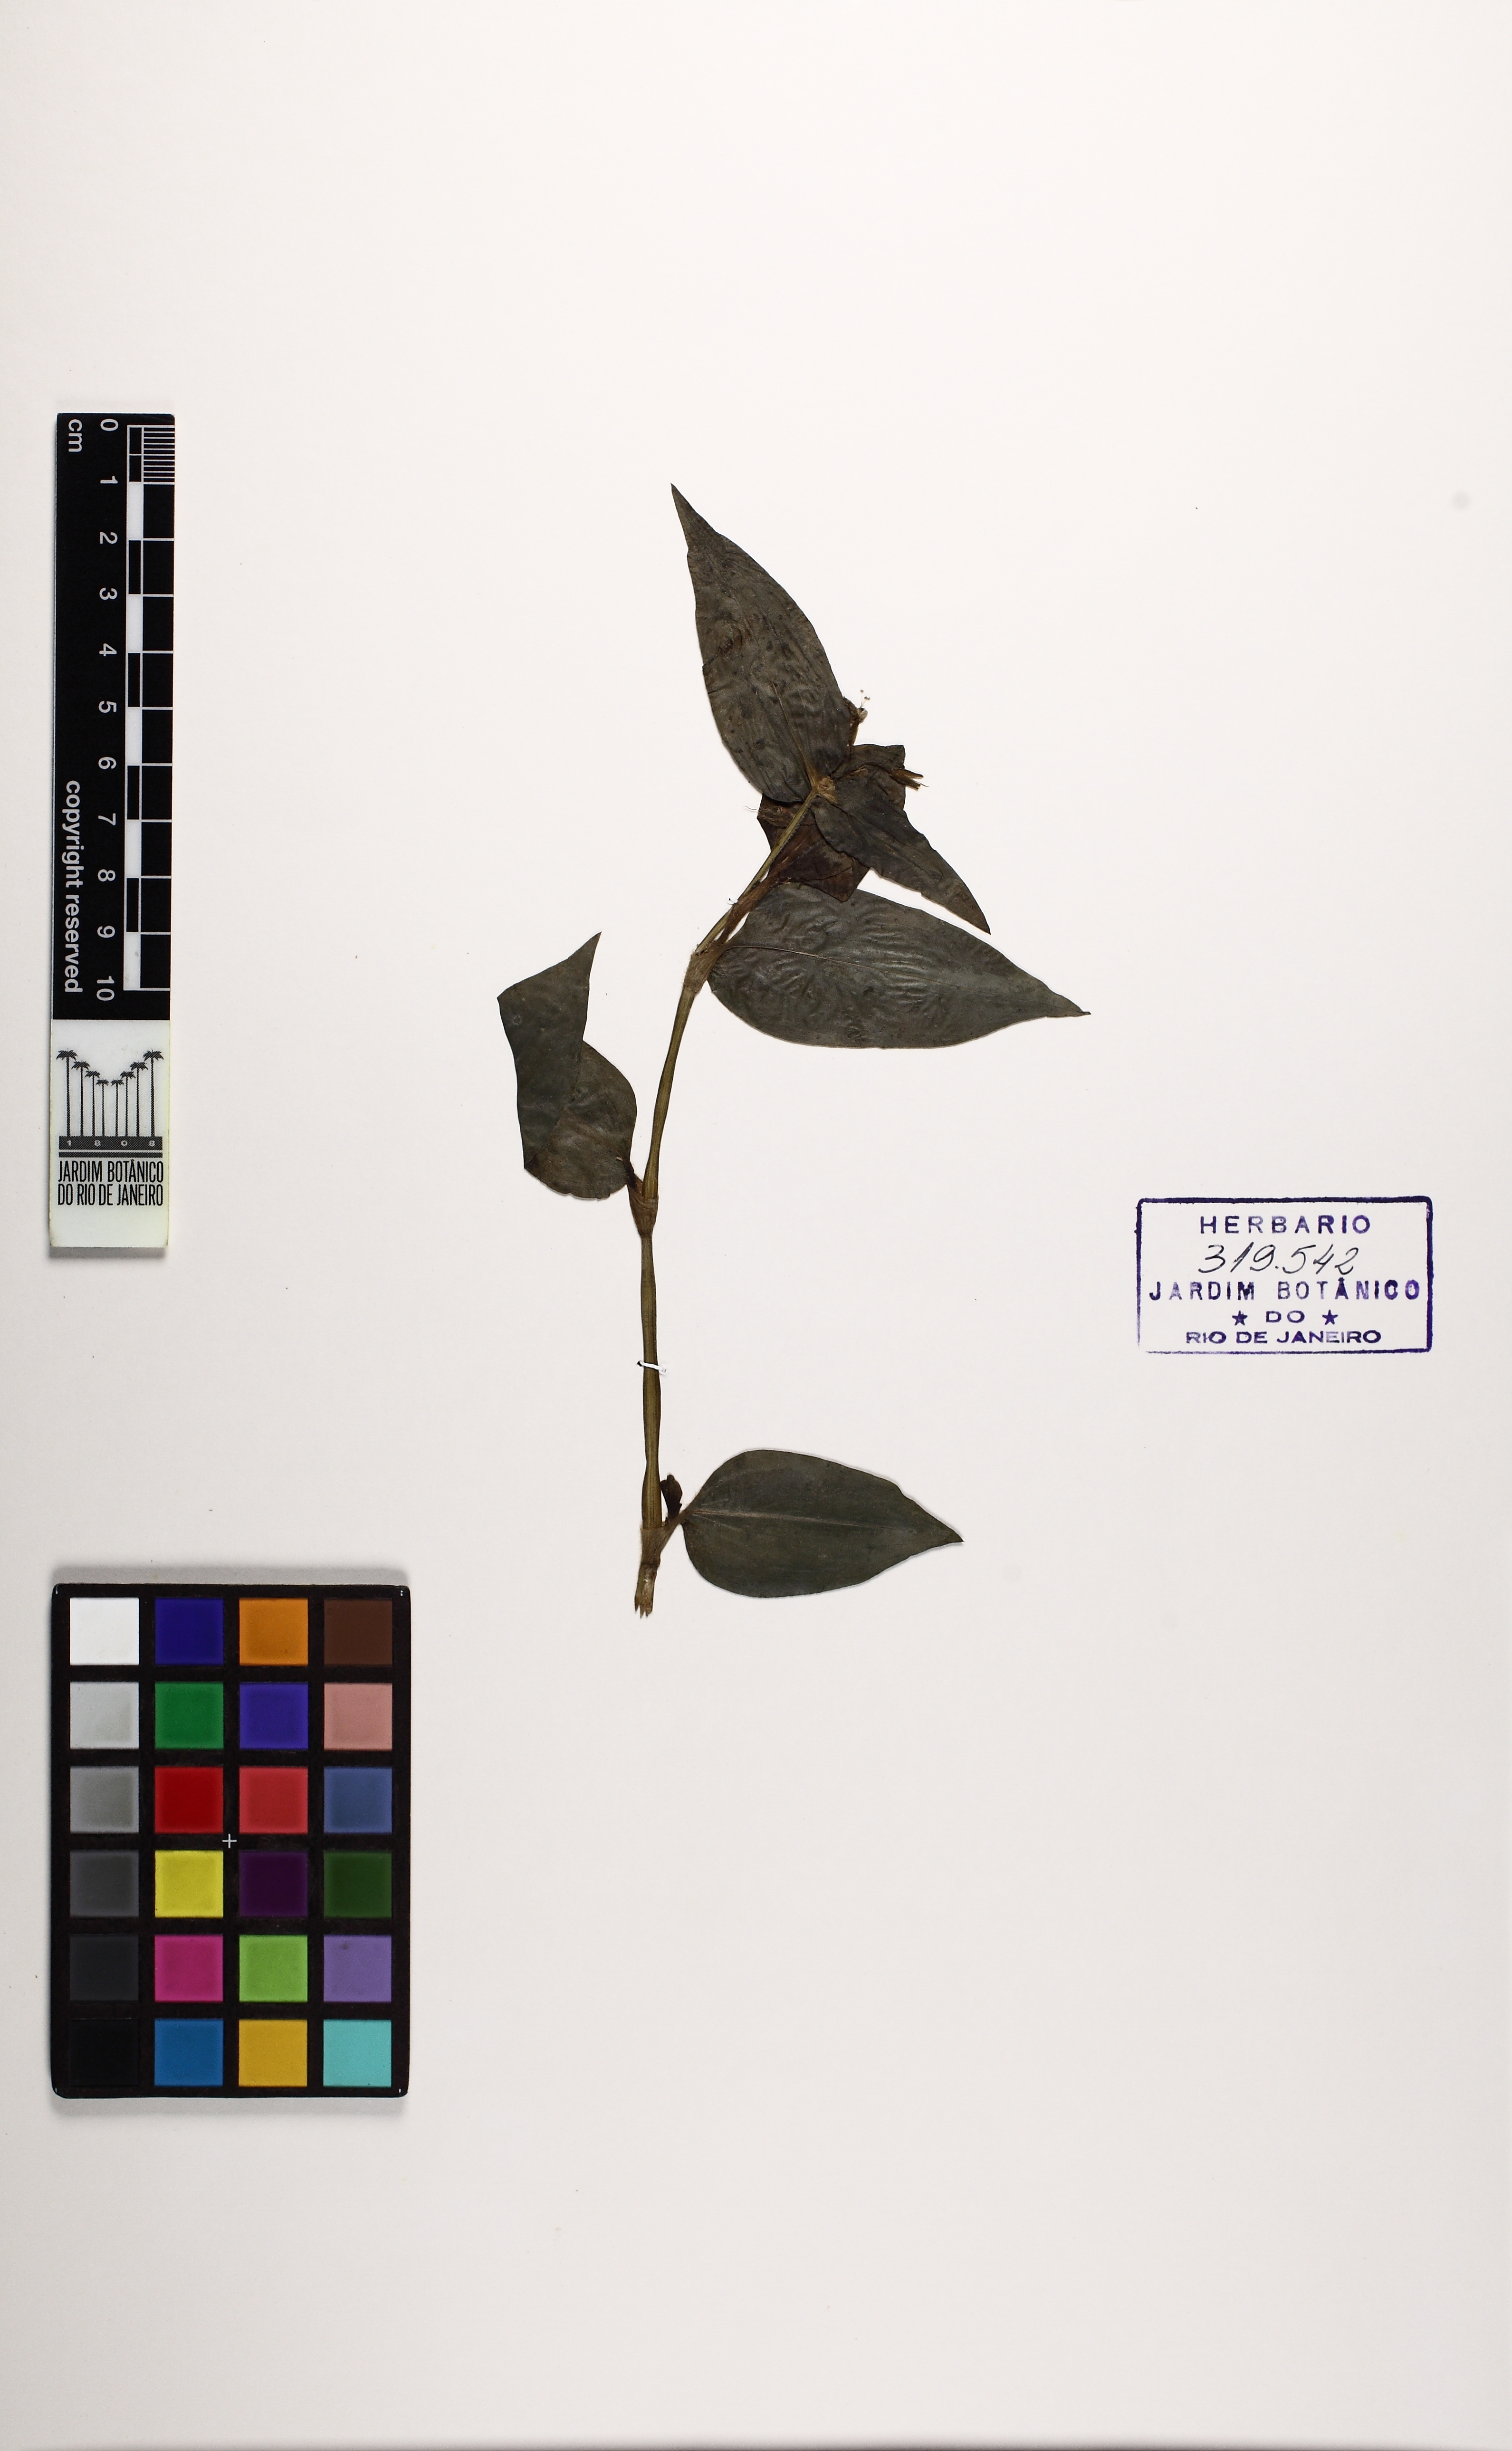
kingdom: Plantae
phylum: Tracheophyta
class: Liliopsida
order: Commelinales
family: Commelinaceae
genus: Tradescantia
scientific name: Tradescantia fluminensis
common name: Wandering-jew
